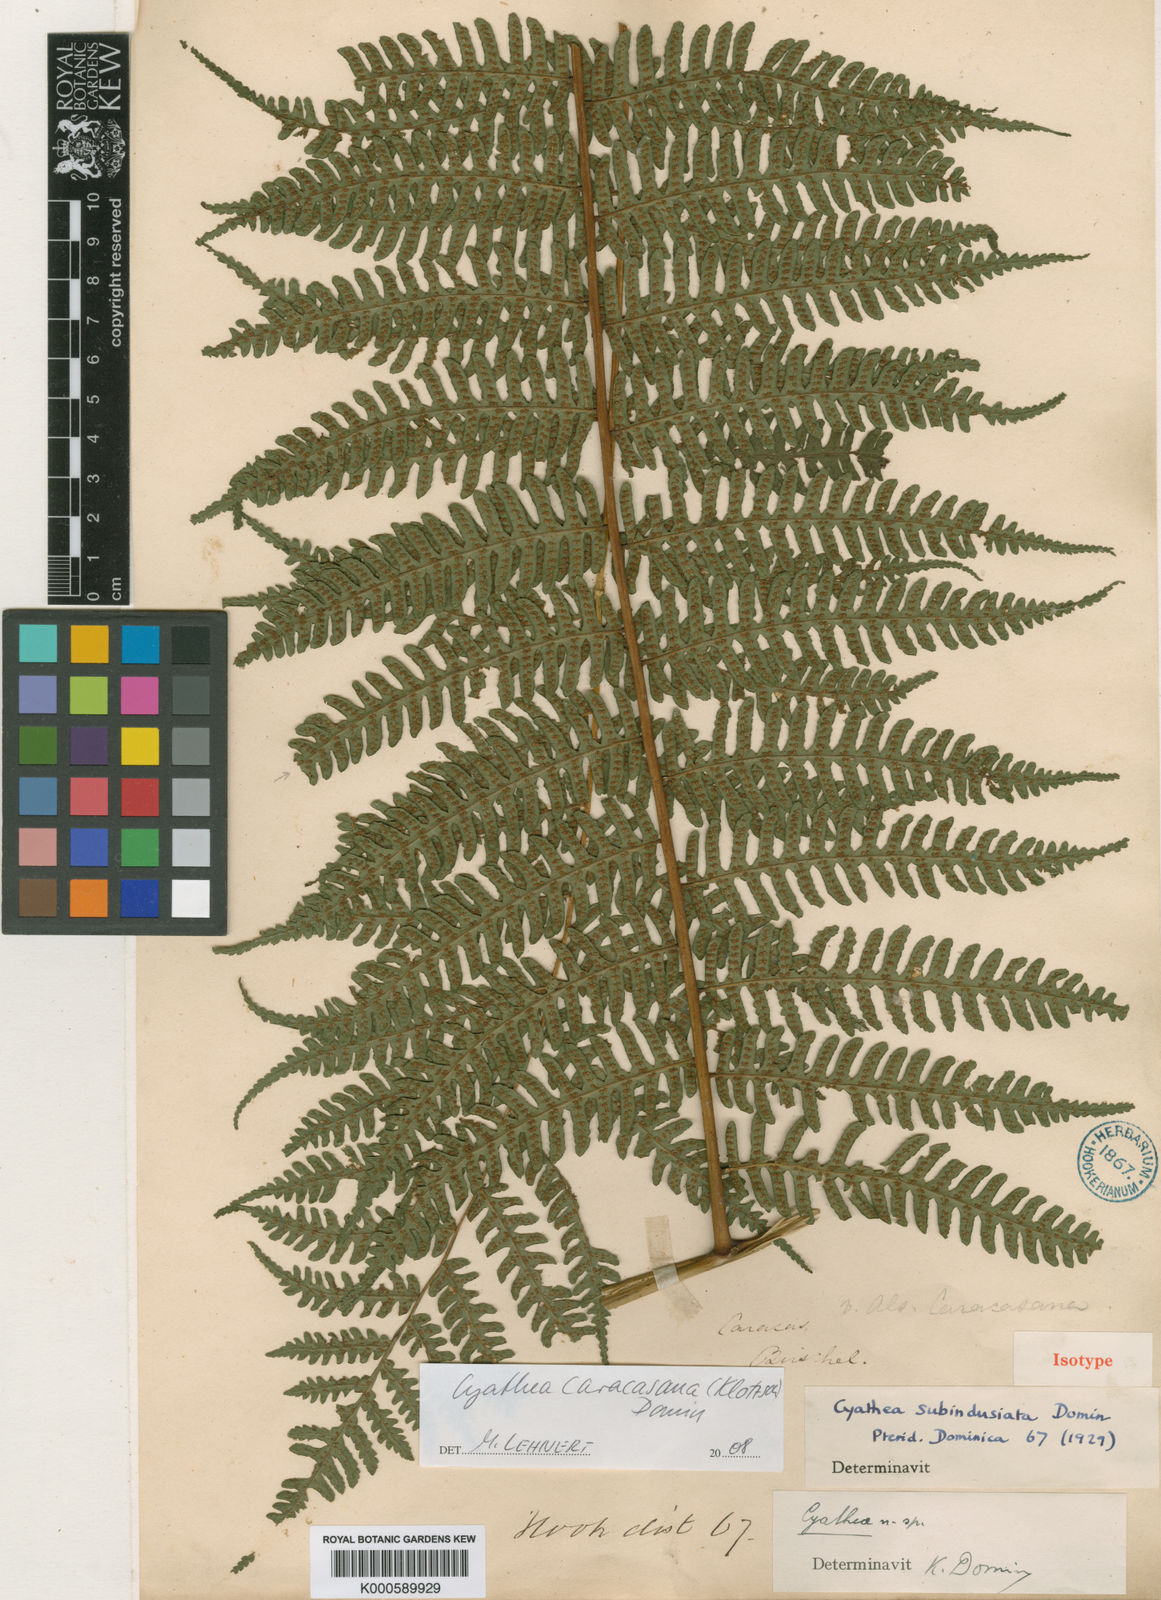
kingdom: Plantae
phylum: Tracheophyta
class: Polypodiopsida
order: Cyatheales
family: Cyatheaceae
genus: Cyathea
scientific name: Cyathea caracasana
